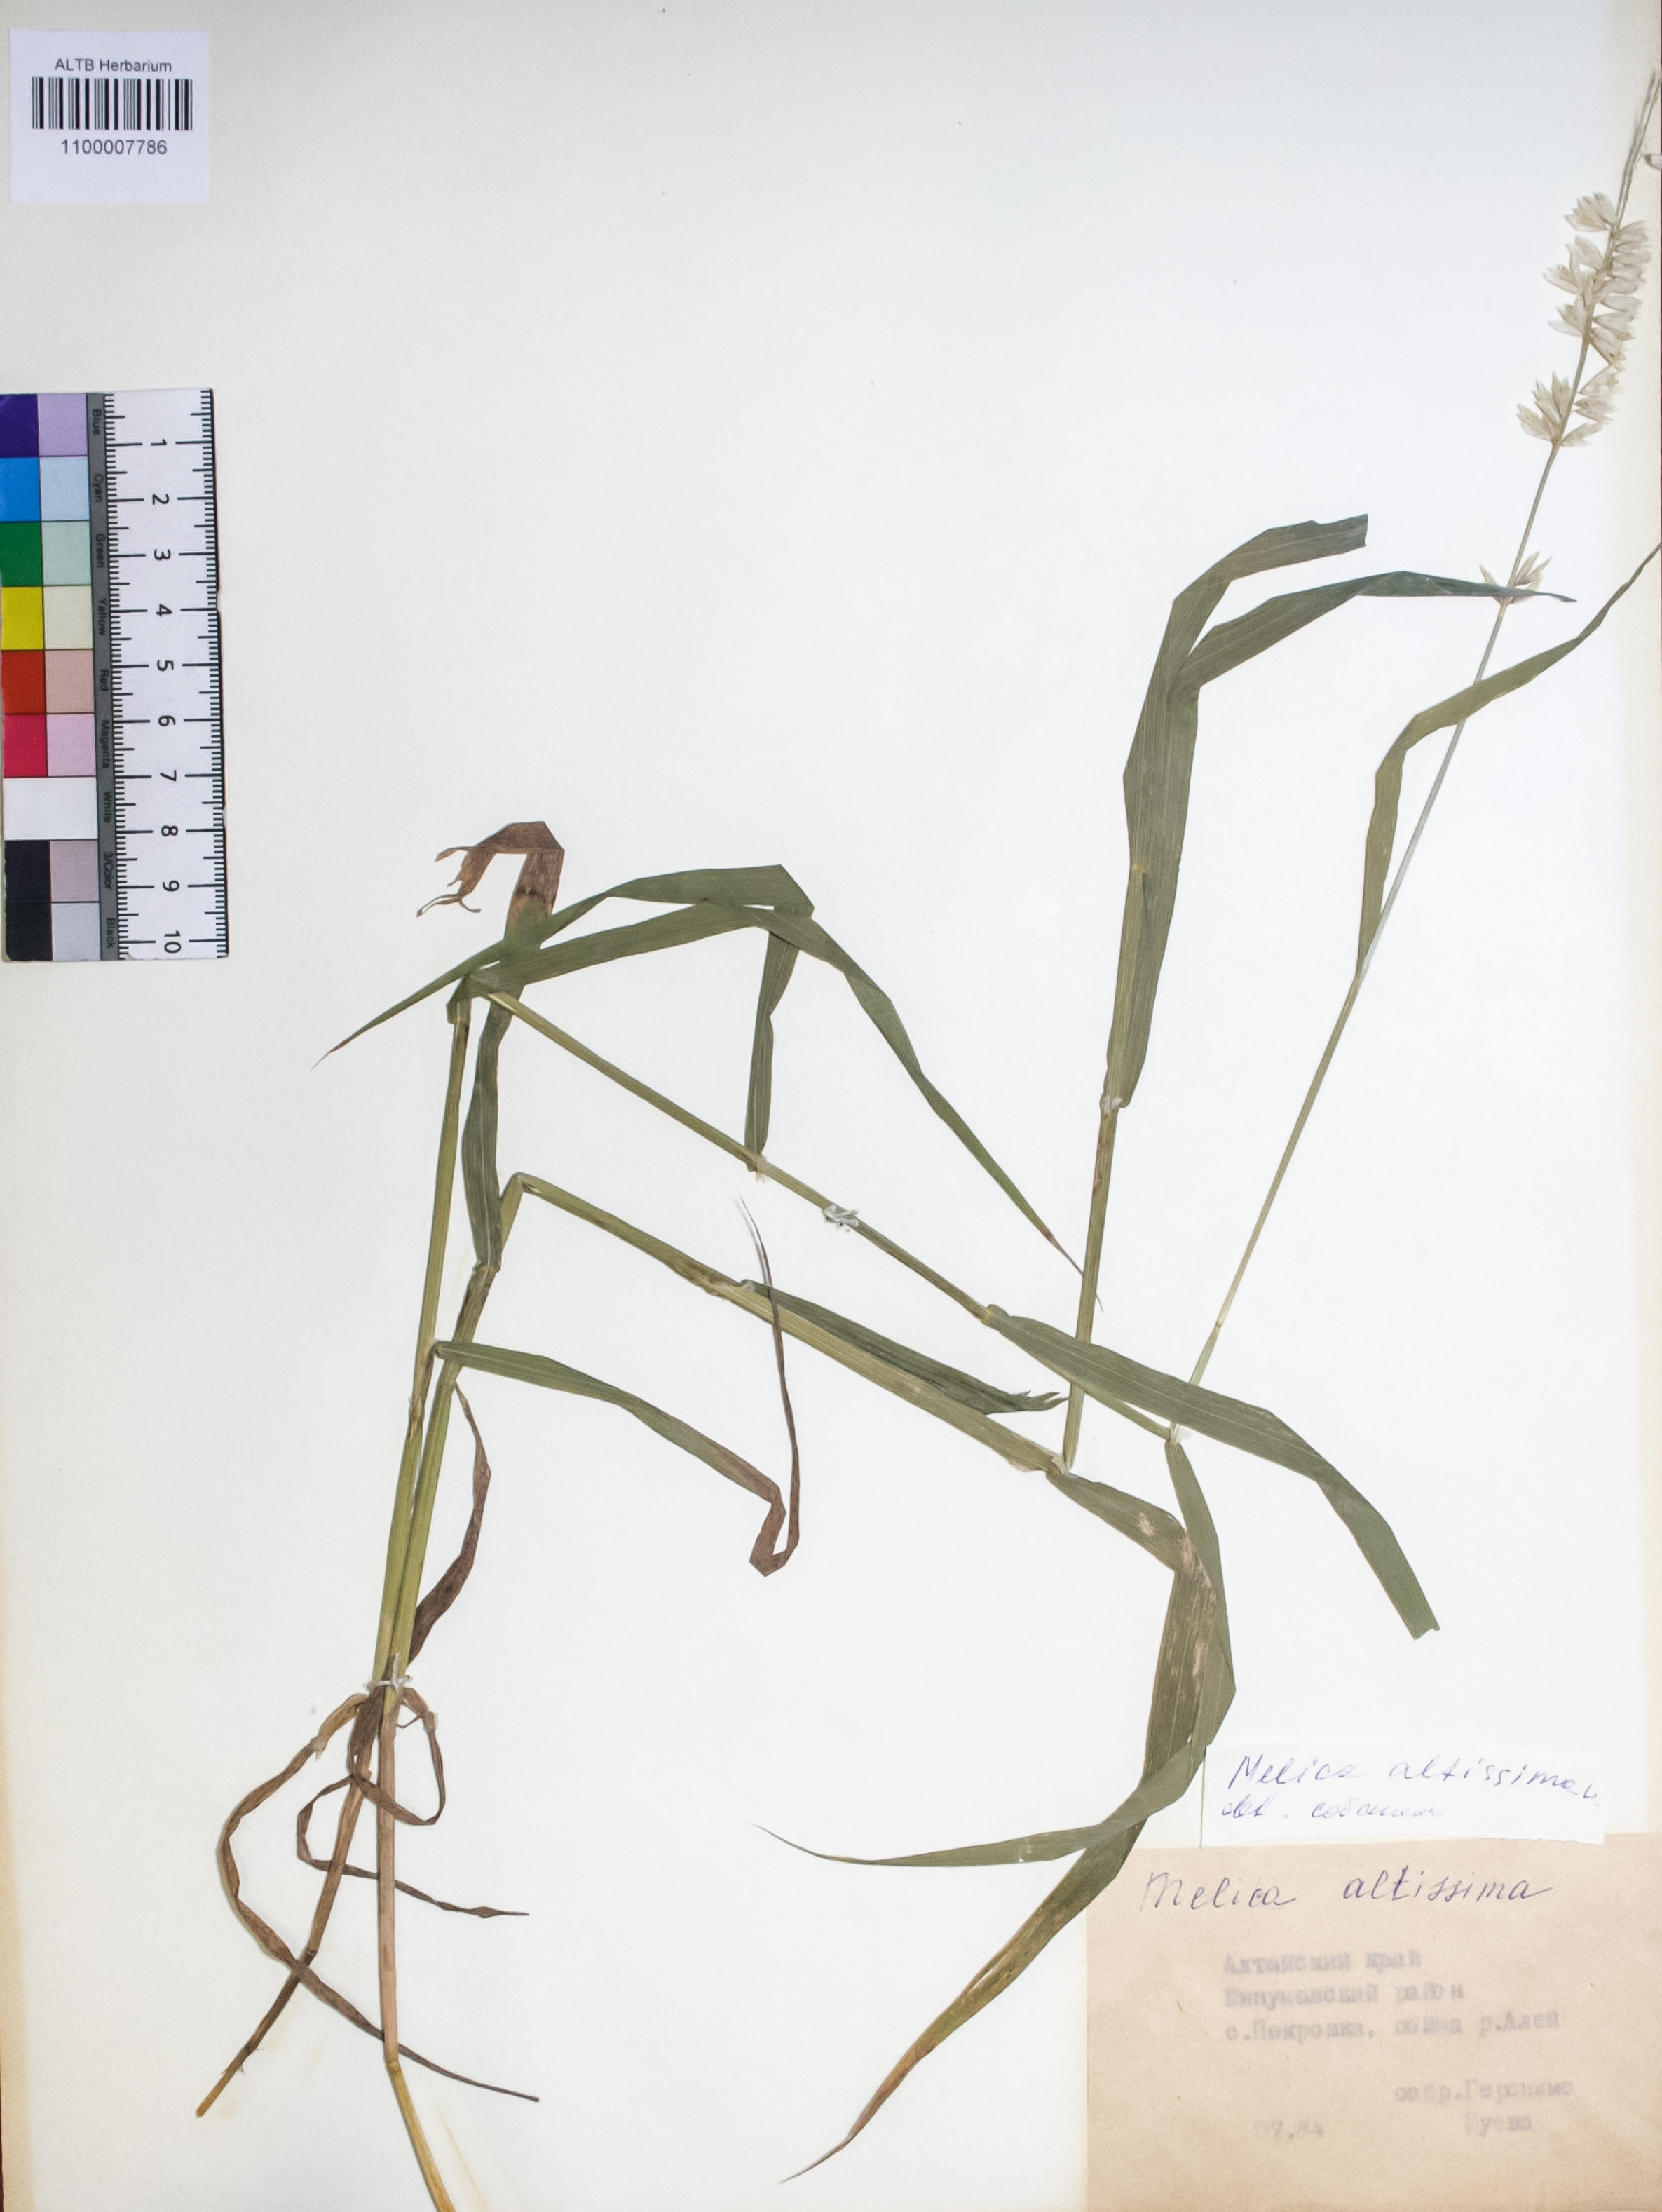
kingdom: Plantae
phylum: Tracheophyta
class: Liliopsida
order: Poales
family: Poaceae
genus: Melica
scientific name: Melica altissima
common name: Siberian melicgrass
